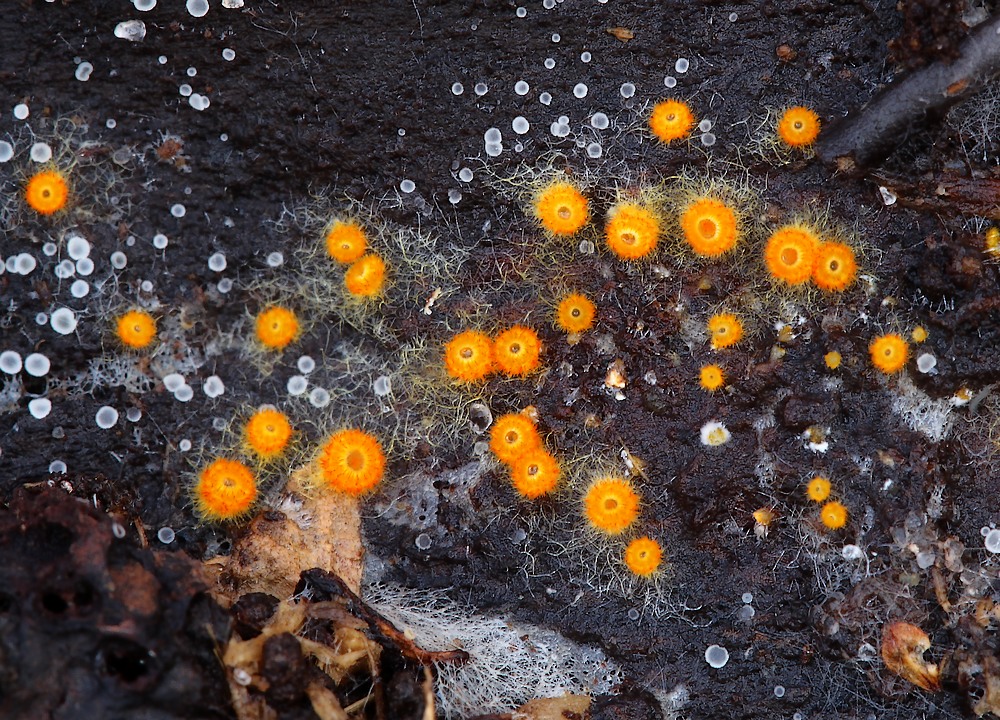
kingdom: Fungi
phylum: Ascomycota
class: Leotiomycetes
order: Helotiales
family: Arachnopezizaceae
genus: Arachnopeziza
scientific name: Arachnopeziza aurelia
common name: flamme-spindskive
